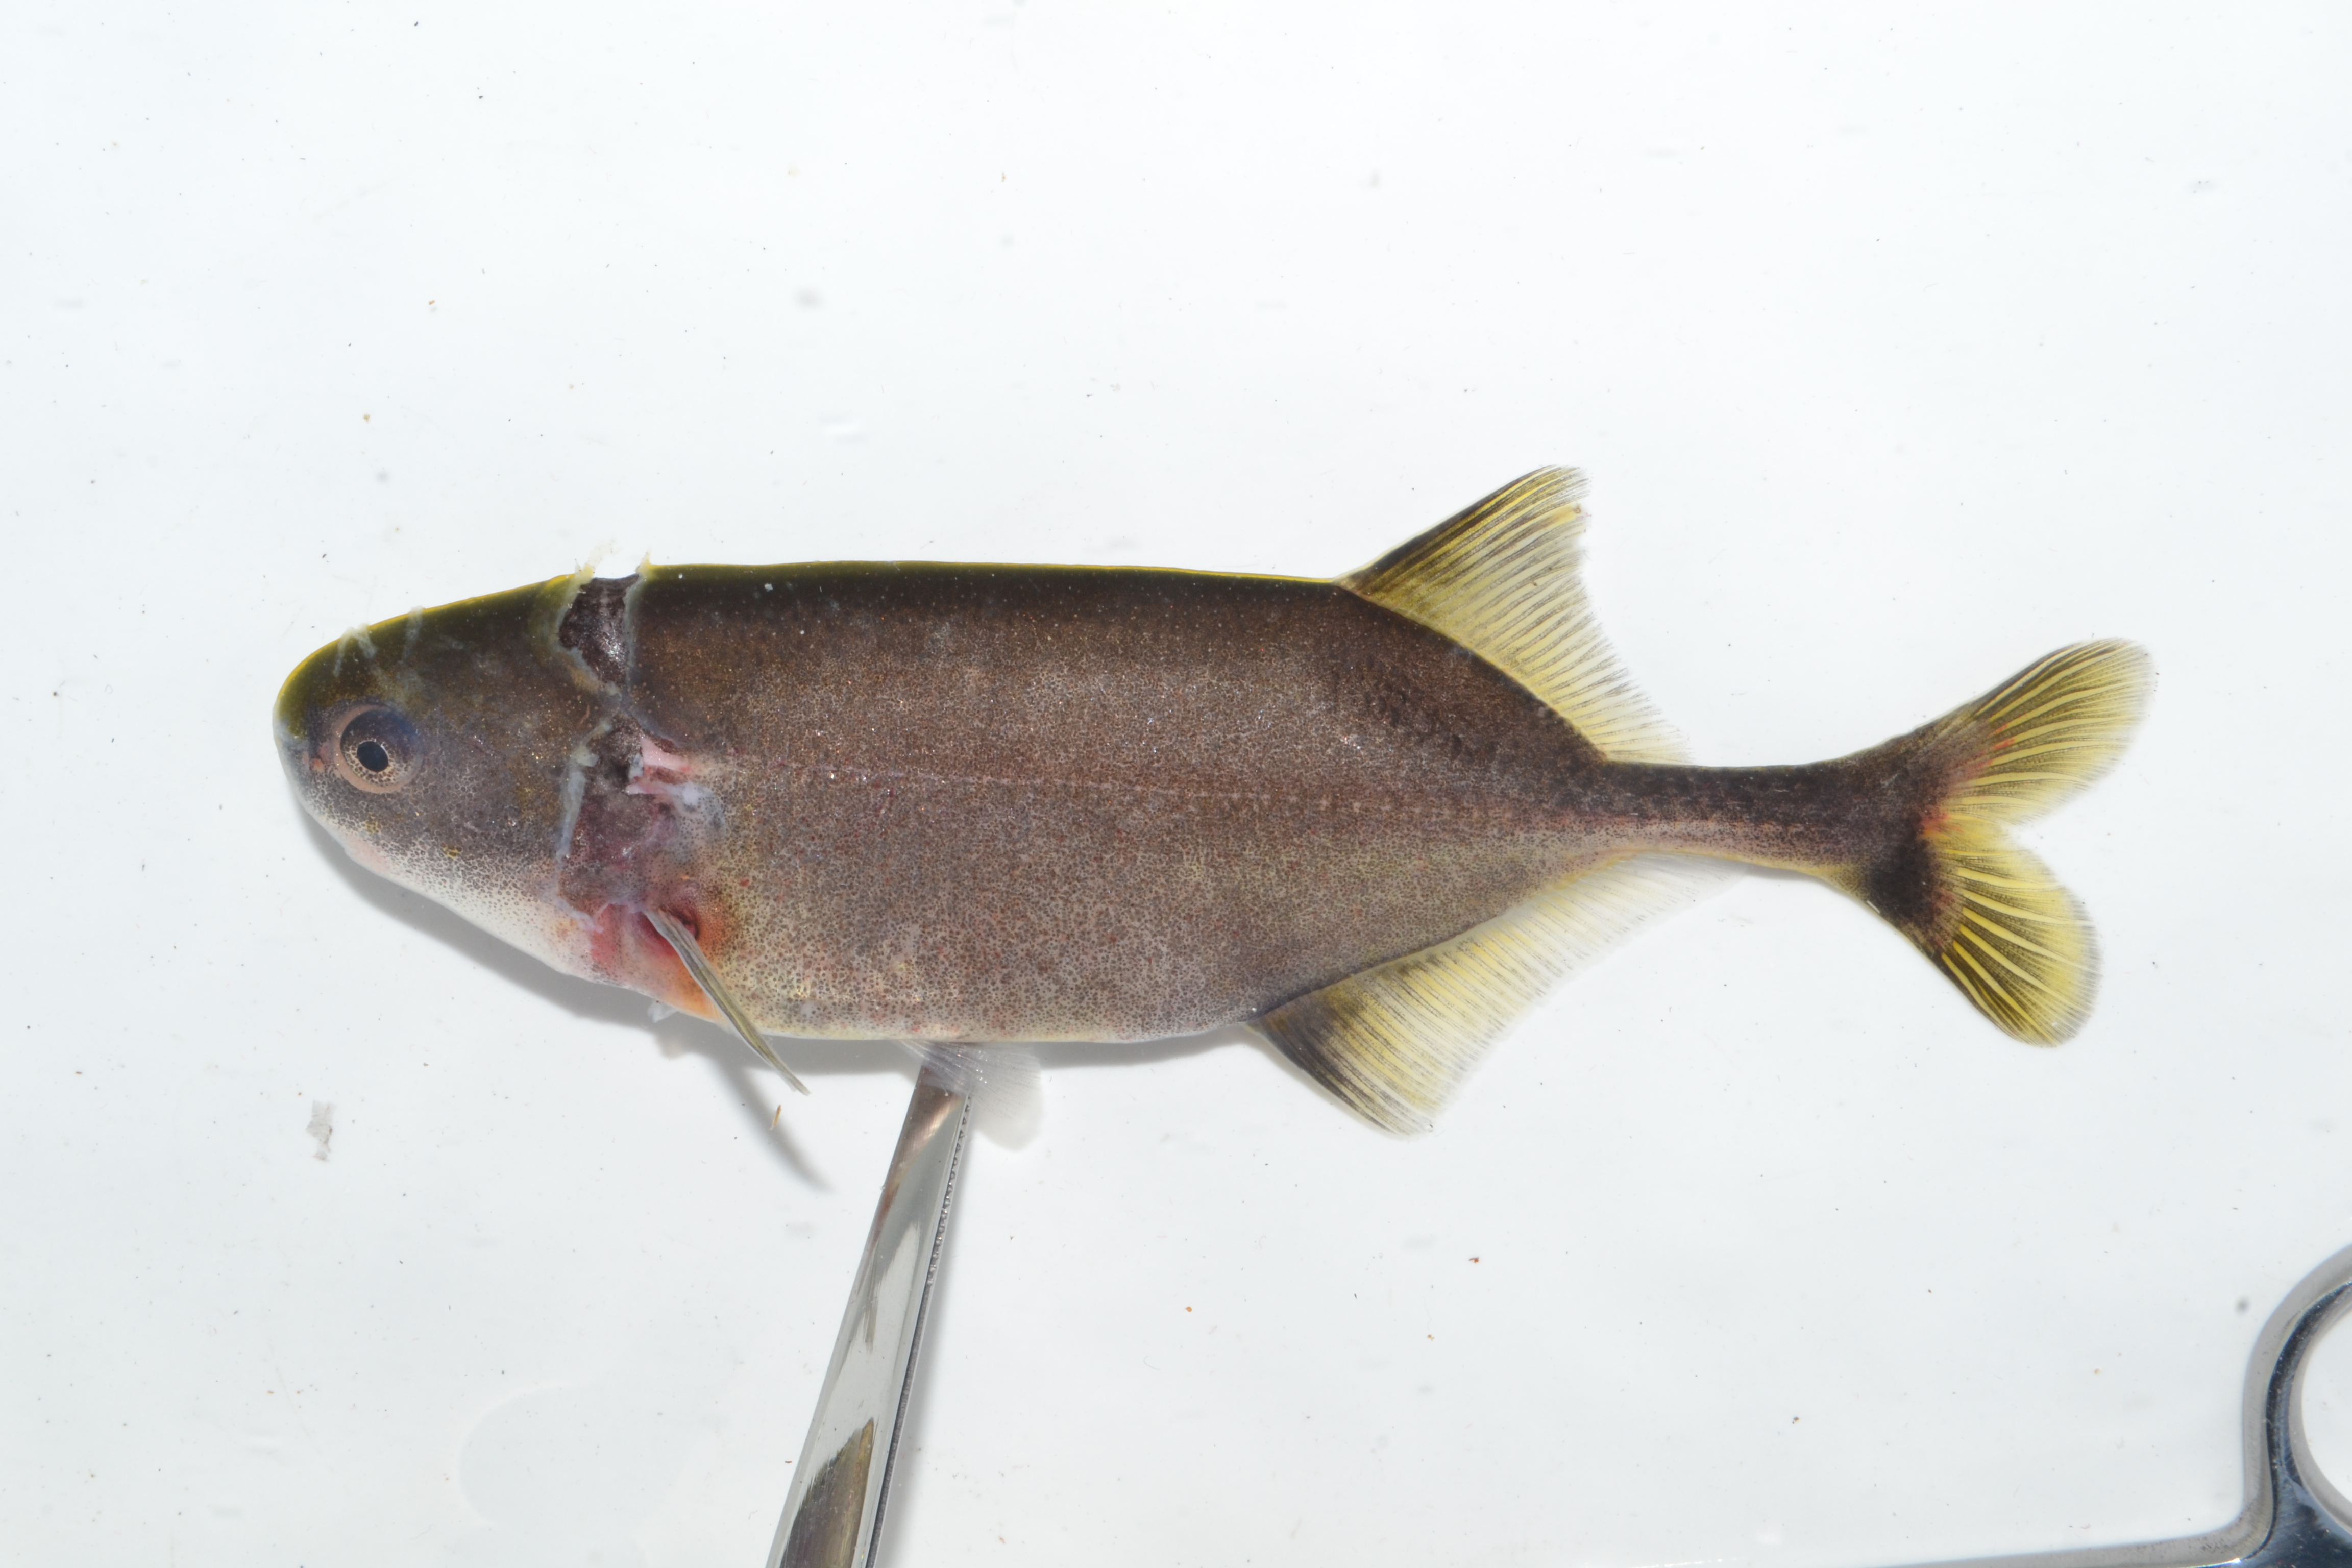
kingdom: Animalia
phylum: Chordata
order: Osteoglossiformes
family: Mormyridae
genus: Petrocephalus
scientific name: Petrocephalus
